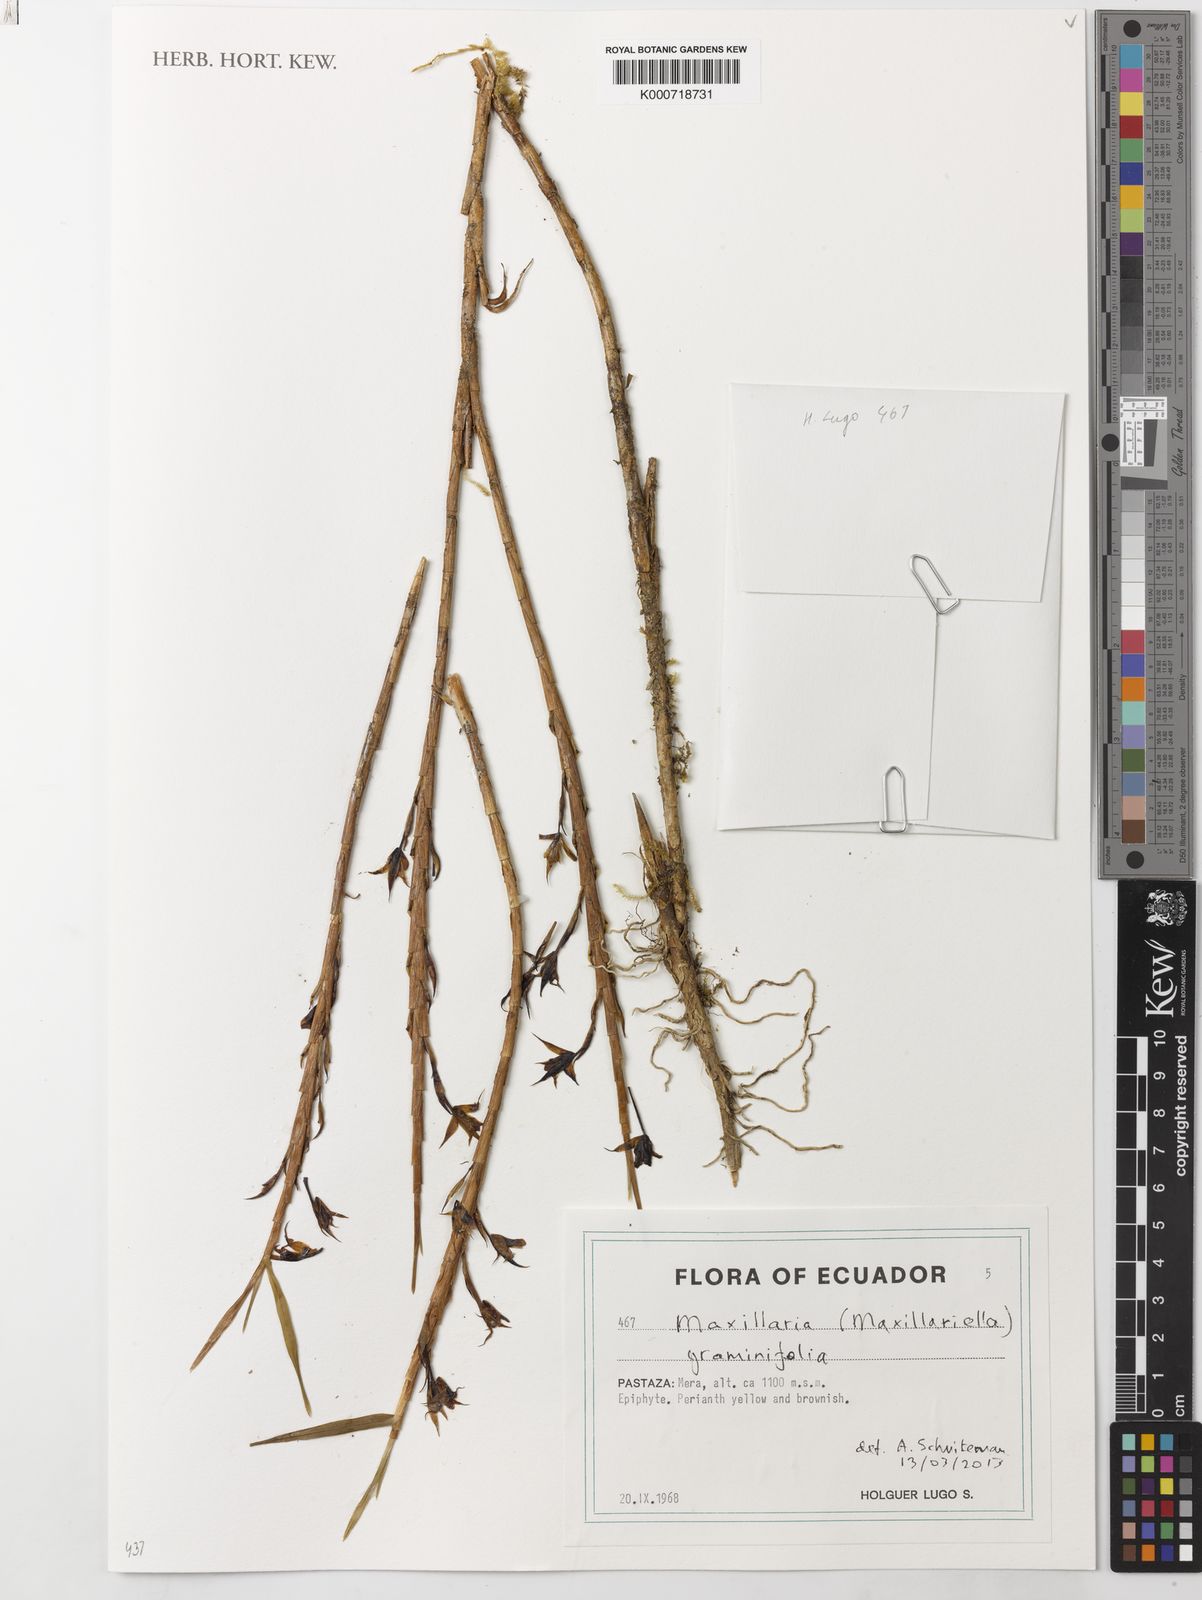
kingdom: Plantae
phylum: Tracheophyta
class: Liliopsida
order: Asparagales
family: Orchidaceae
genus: Maxillaria
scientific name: Maxillaria graminifolia
